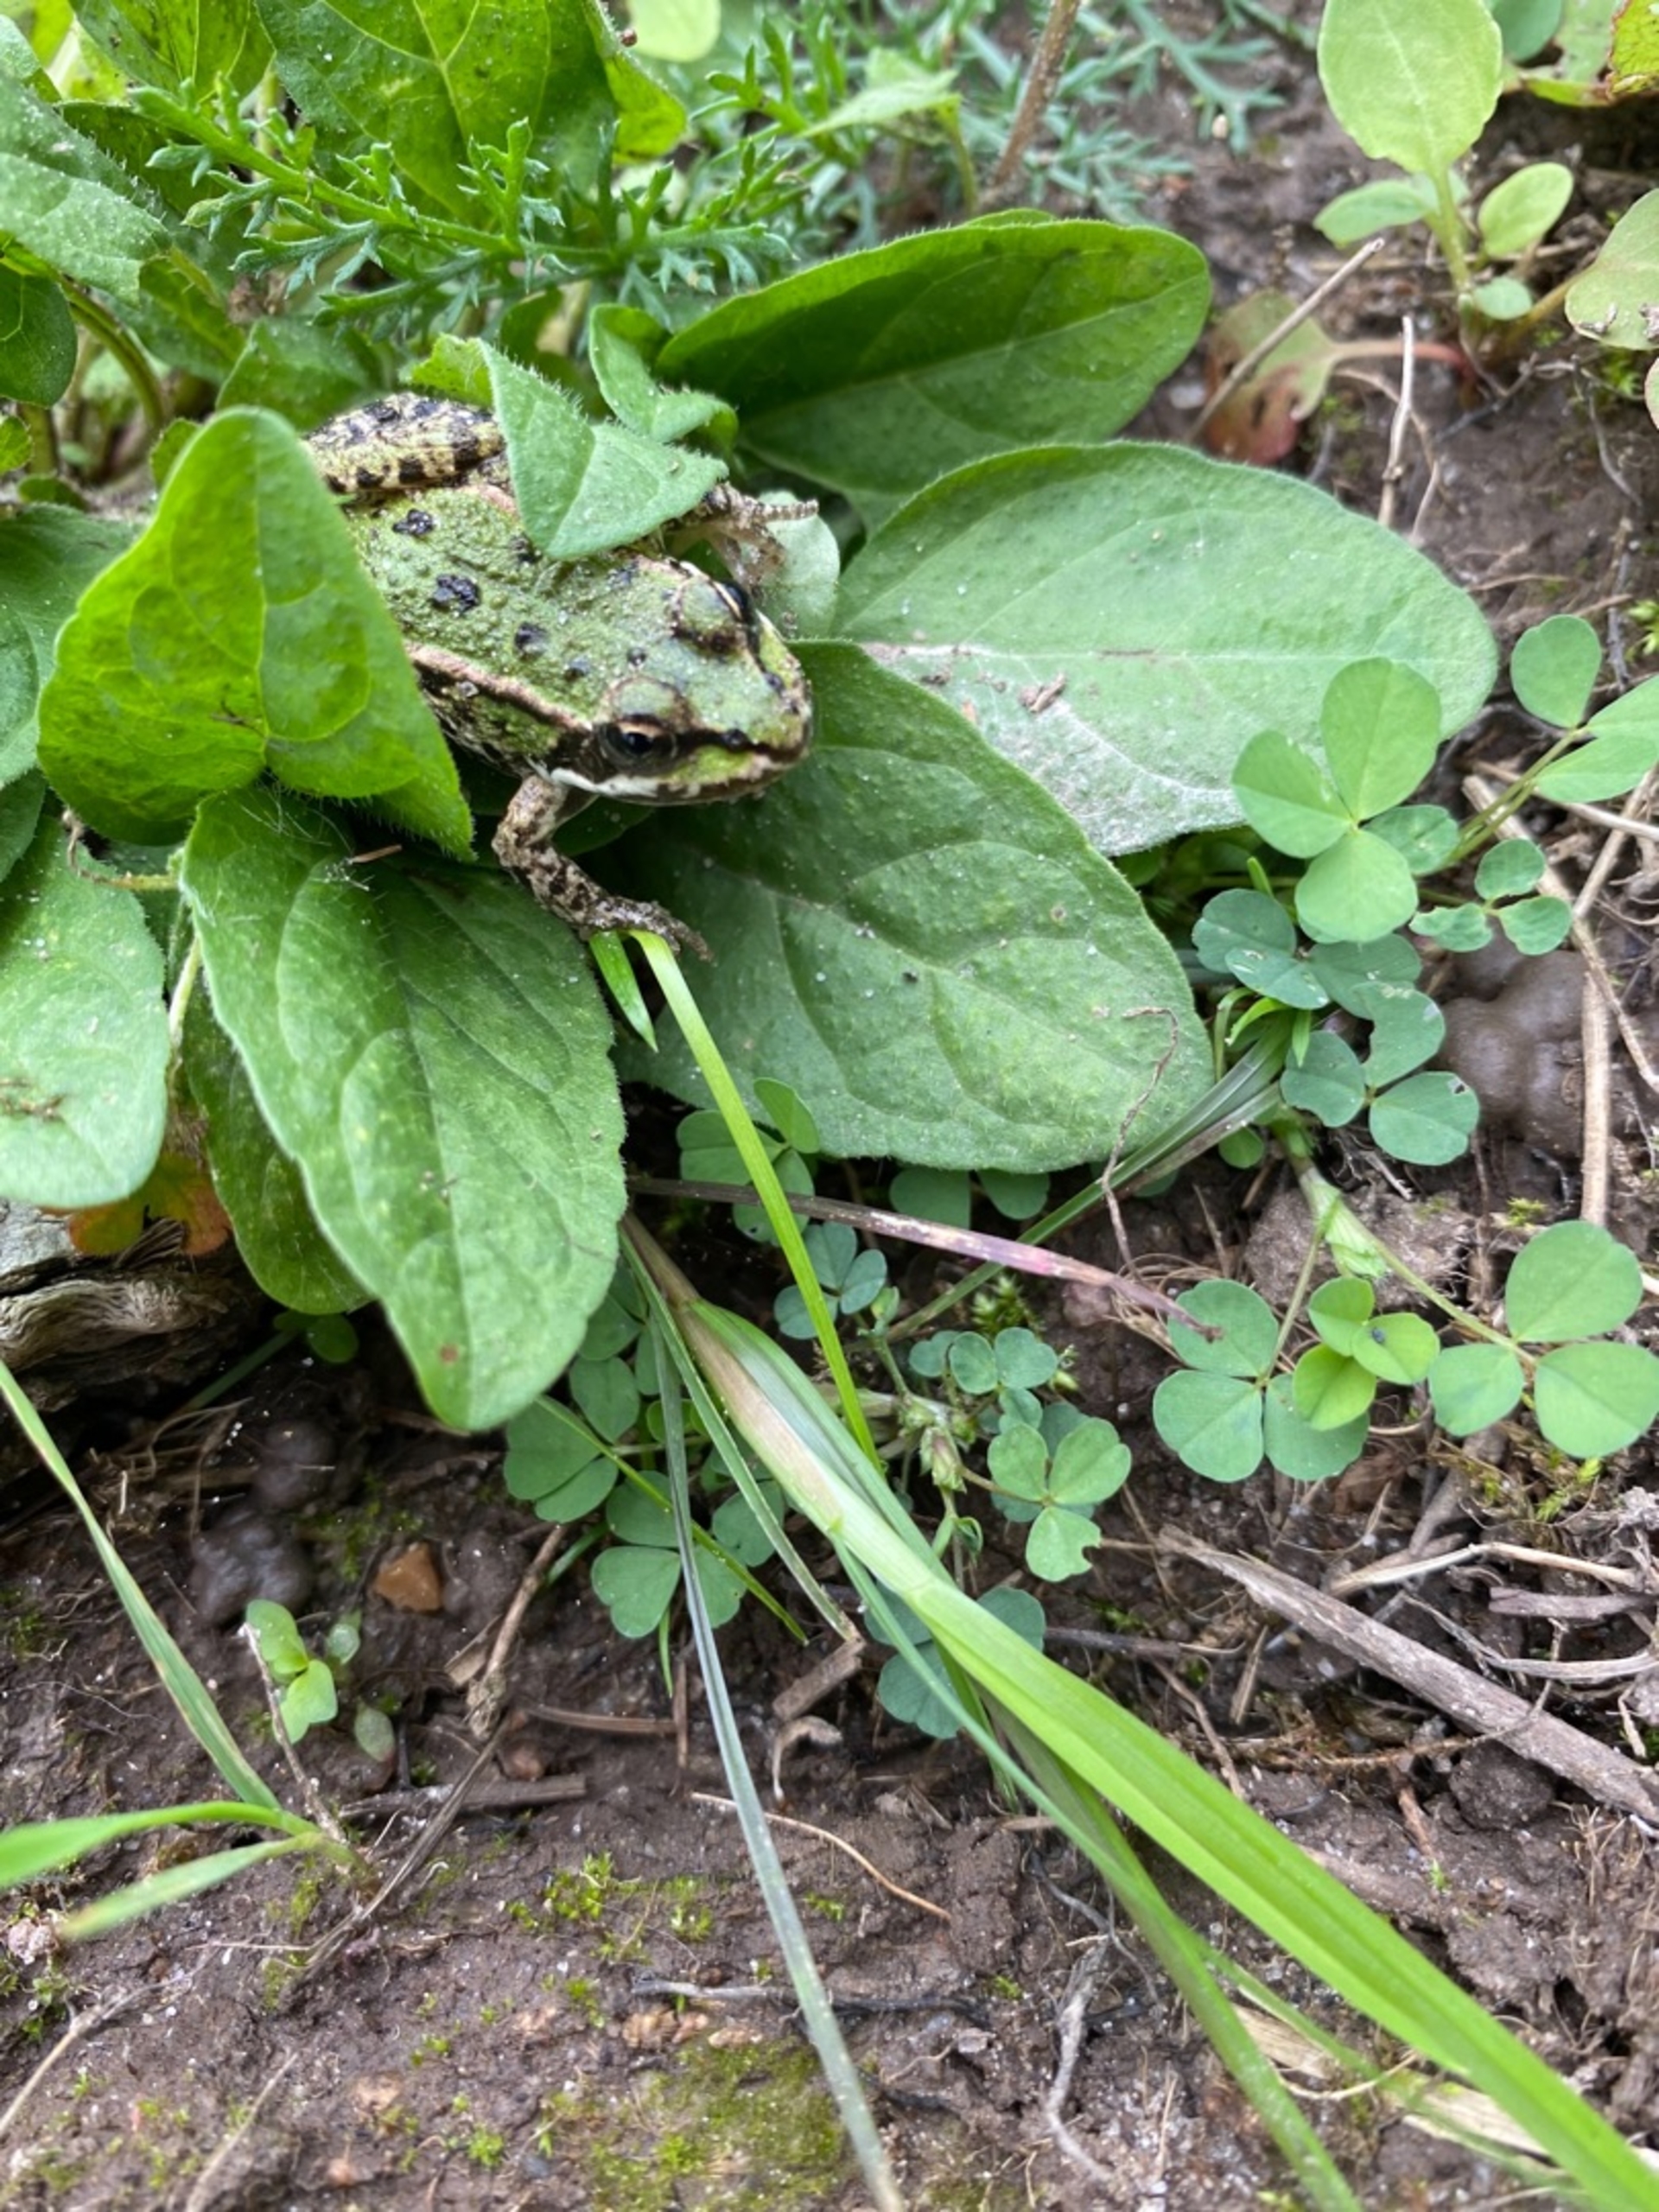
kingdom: Animalia
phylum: Chordata
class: Amphibia
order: Anura
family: Ranidae
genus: Pelophylax
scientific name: Pelophylax lessonae
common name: Grøn frø
